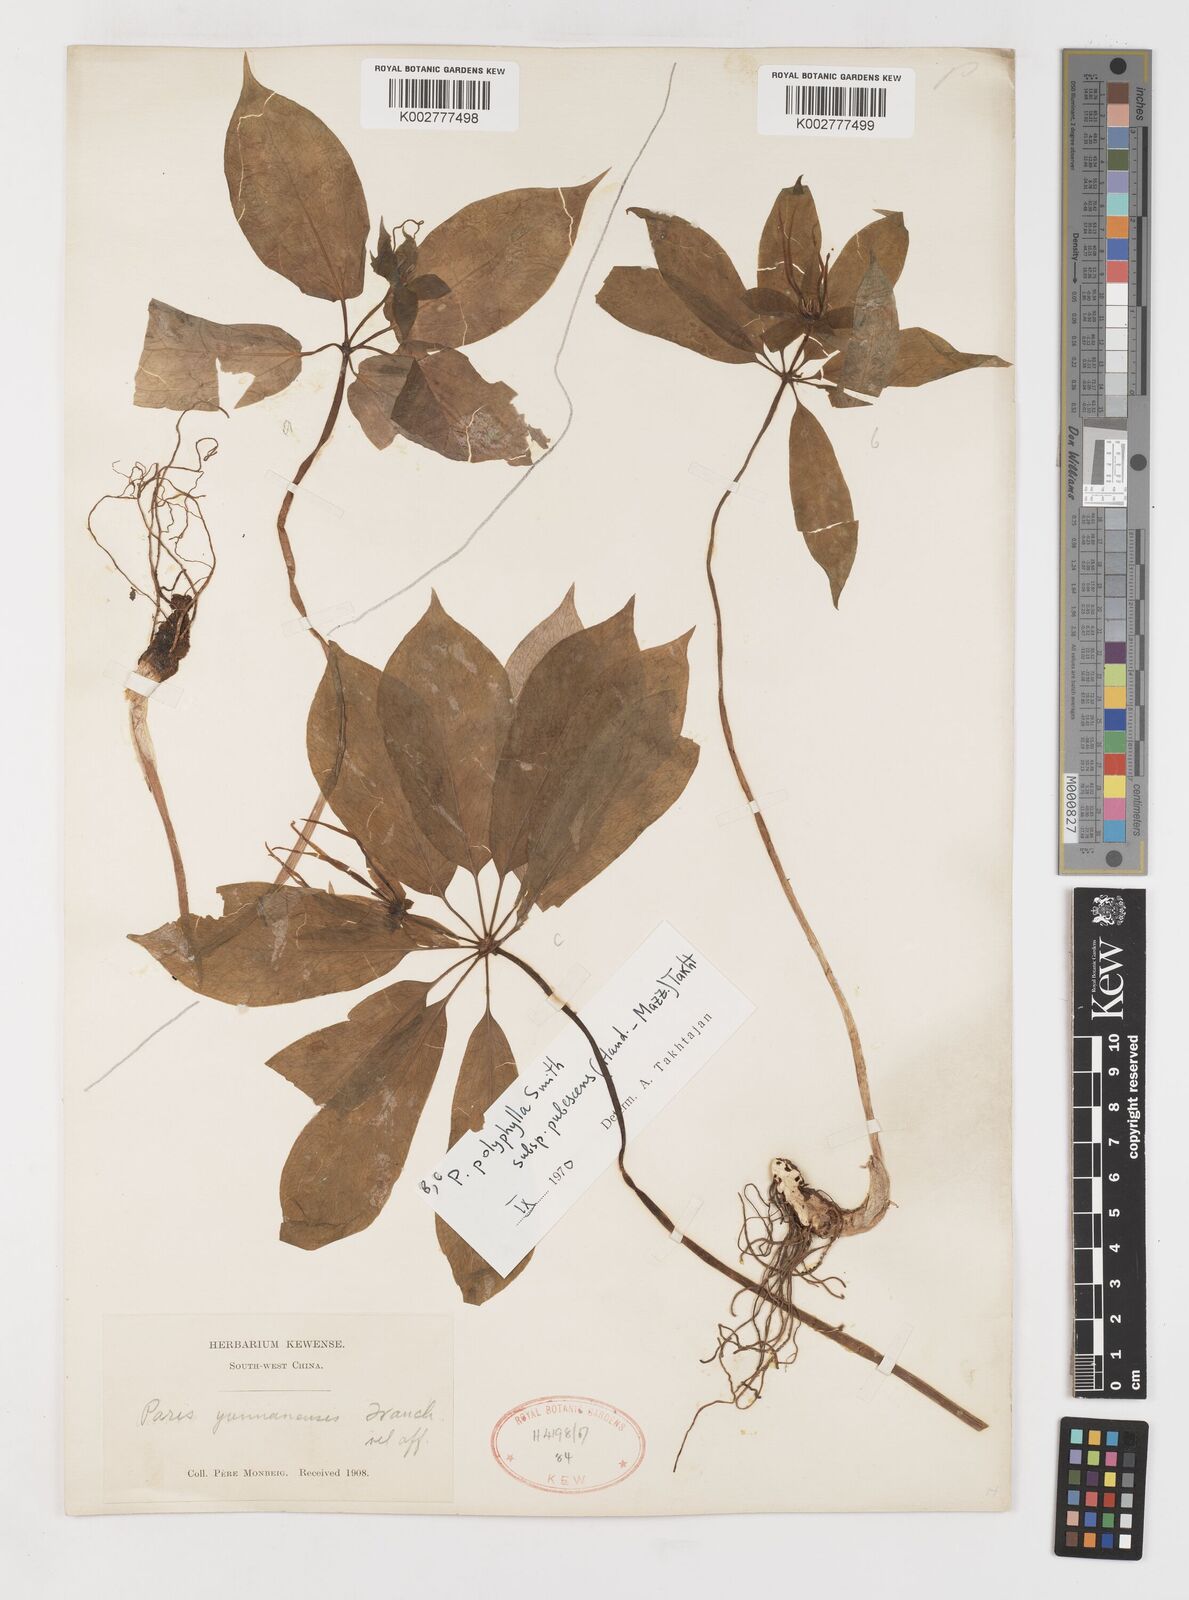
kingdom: Plantae
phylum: Tracheophyta
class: Liliopsida
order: Liliales
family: Melanthiaceae
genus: Paris
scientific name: Paris mairei
